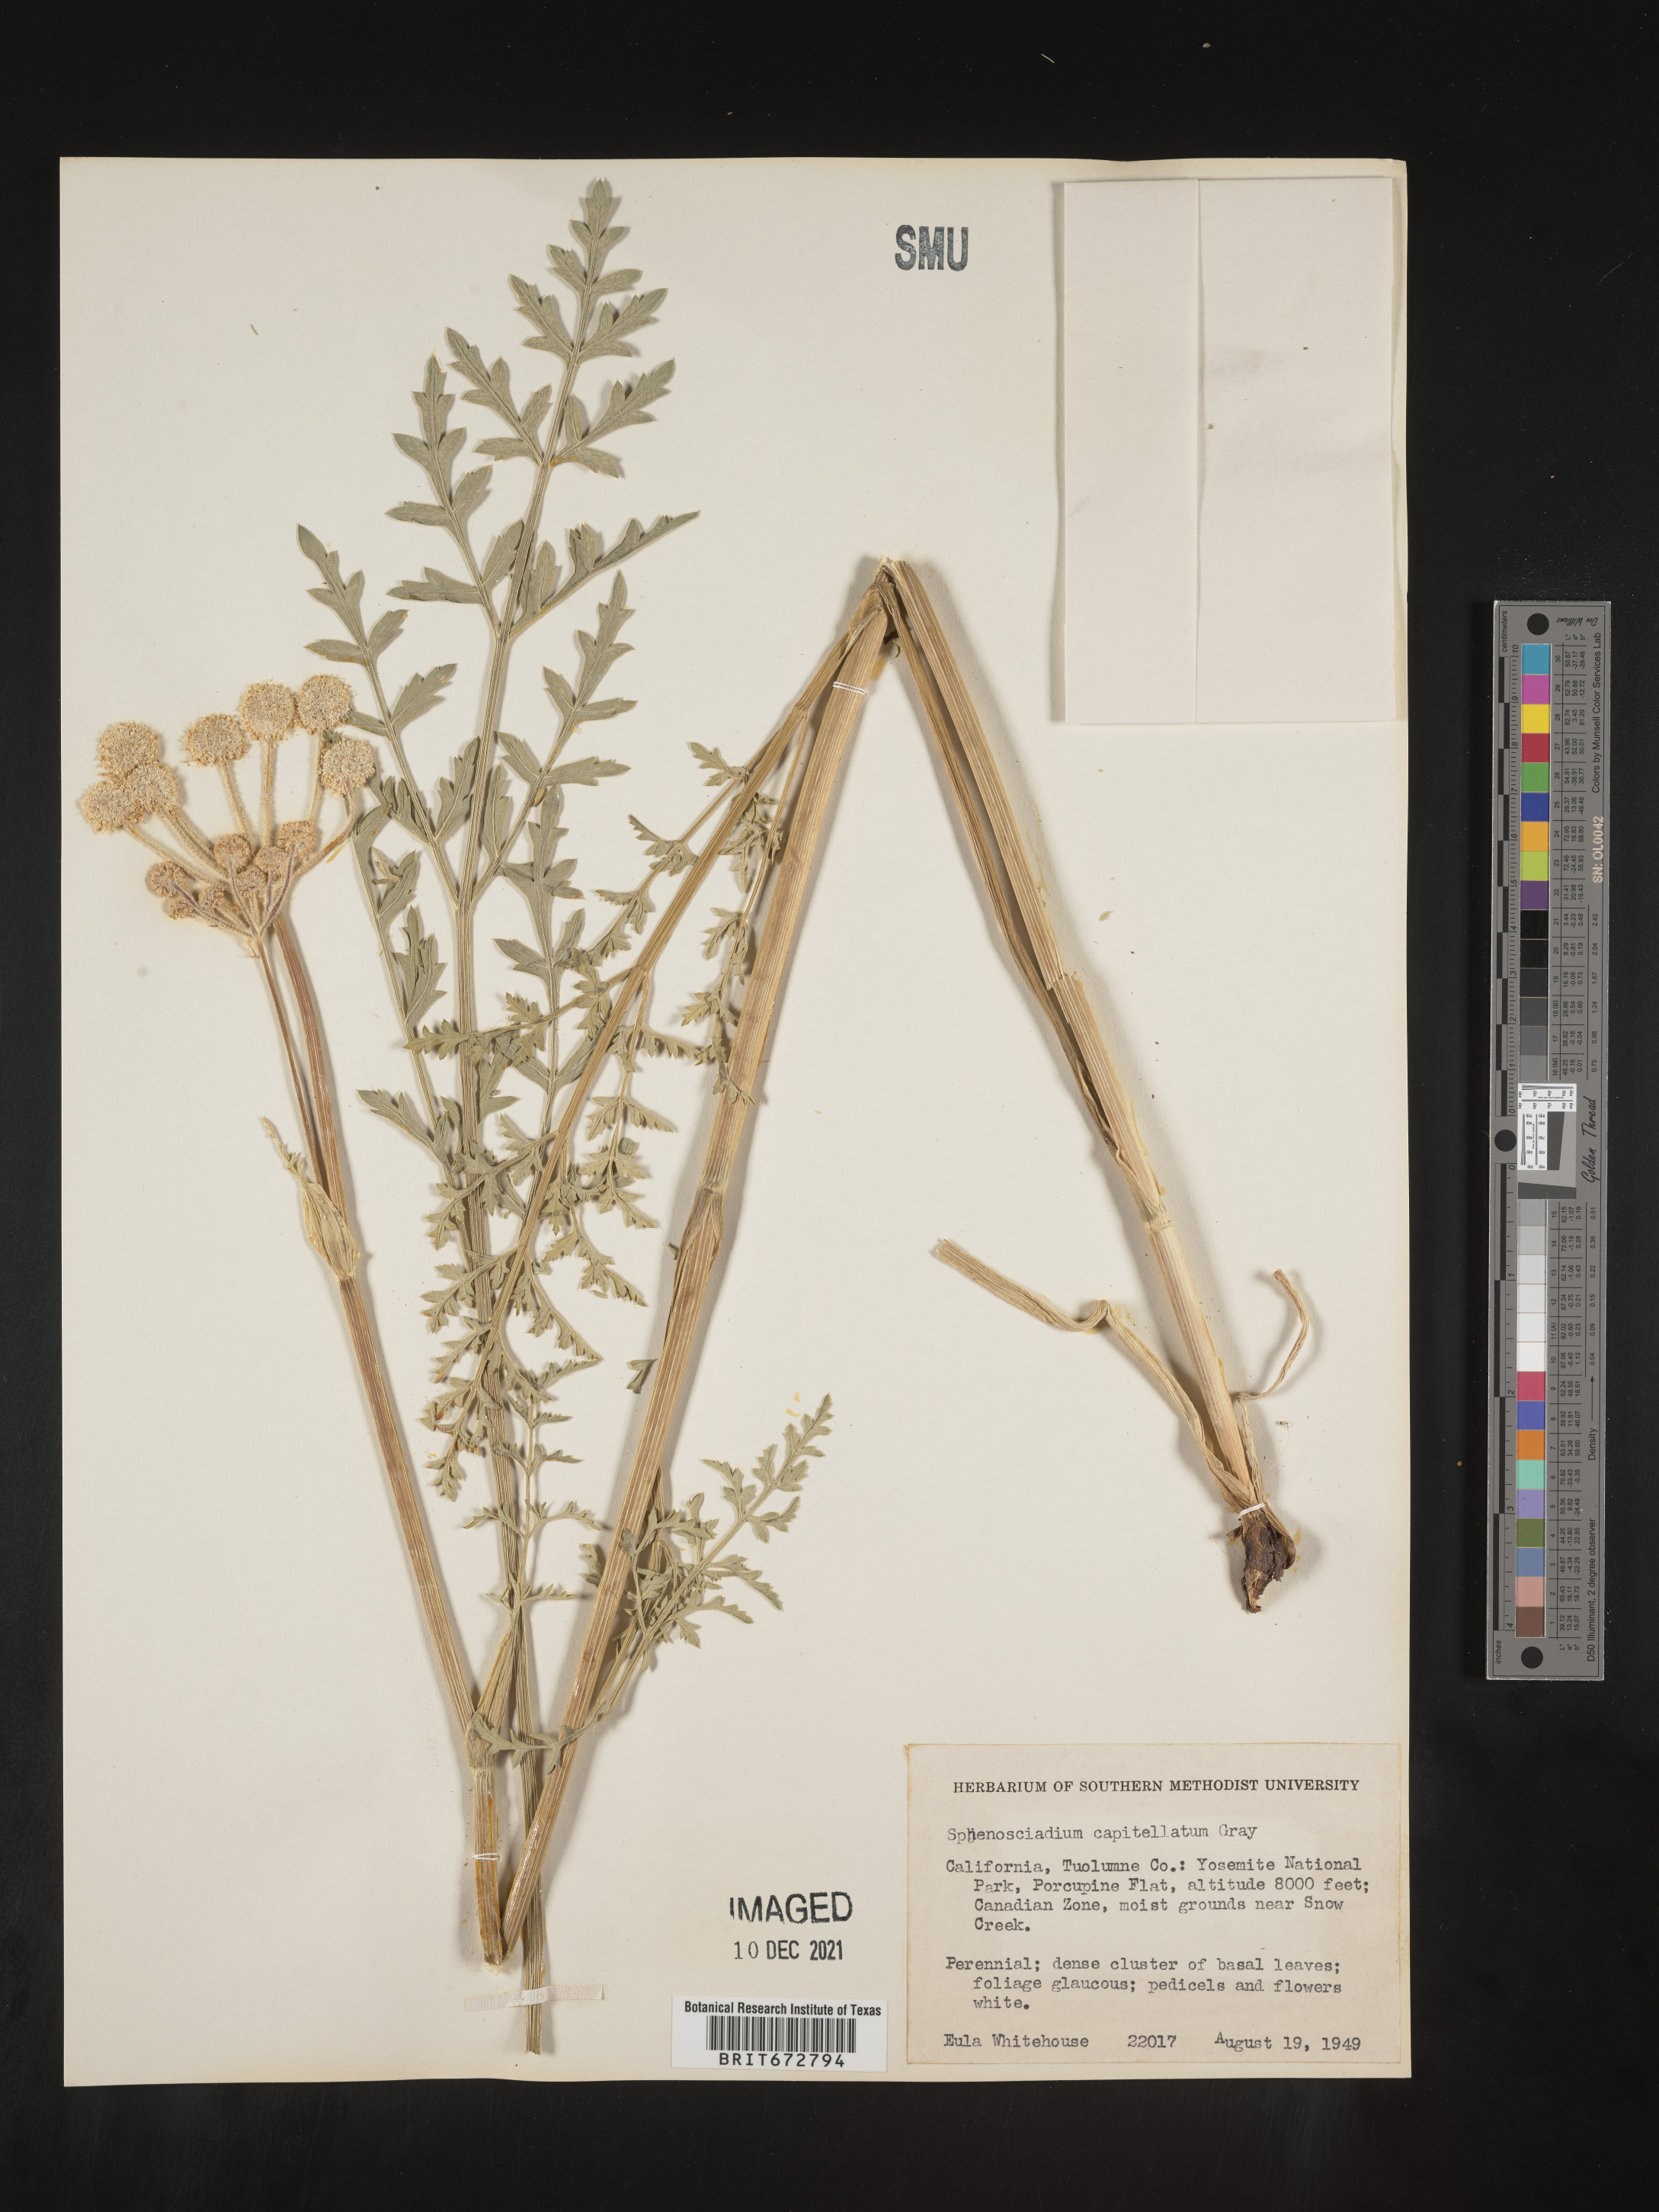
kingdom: Plantae
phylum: Tracheophyta
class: Magnoliopsida
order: Apiales
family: Apiaceae
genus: Angelica
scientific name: Angelica
